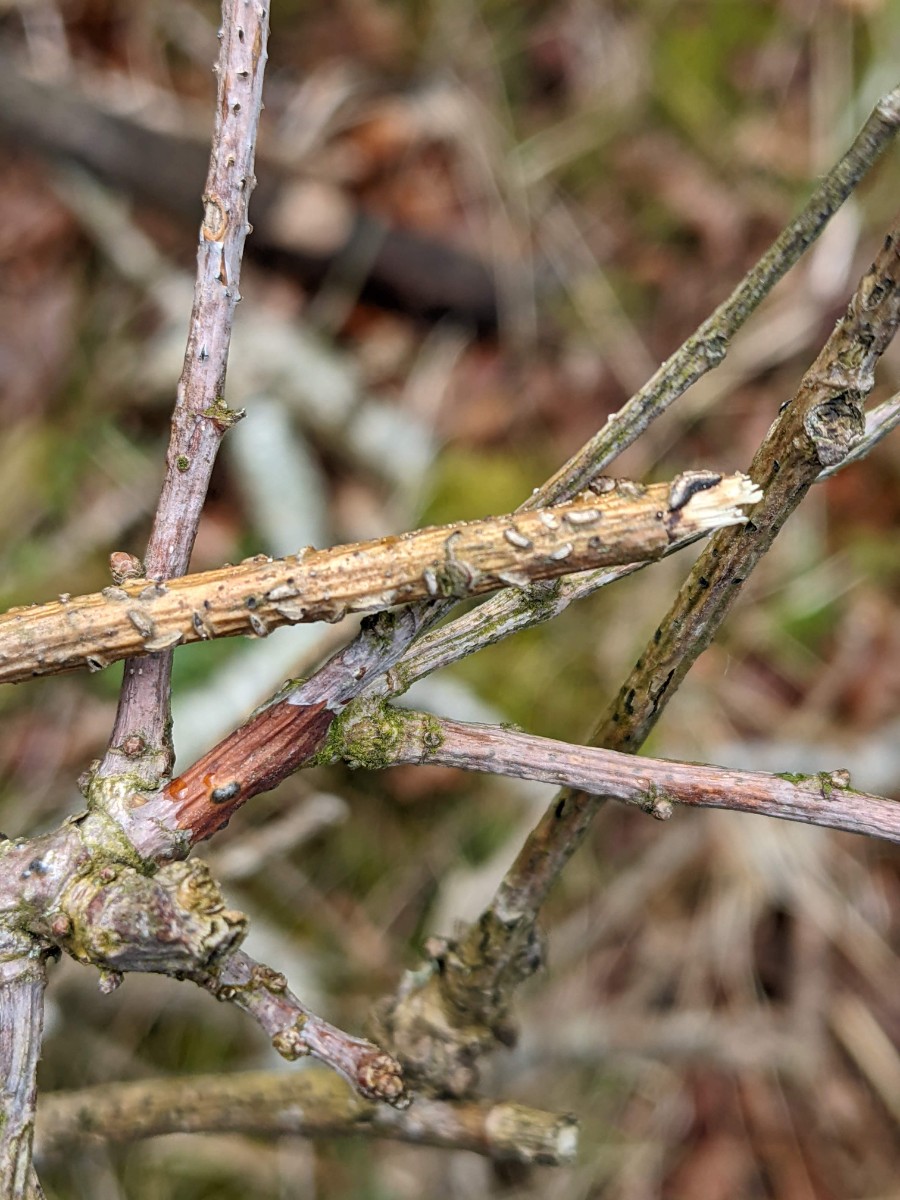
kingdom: Fungi
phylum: Ascomycota
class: Leotiomycetes
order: Rhytismatales
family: Rhytismataceae
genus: Colpoma
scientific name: Colpoma quercinum
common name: ege-sprækkeskive
